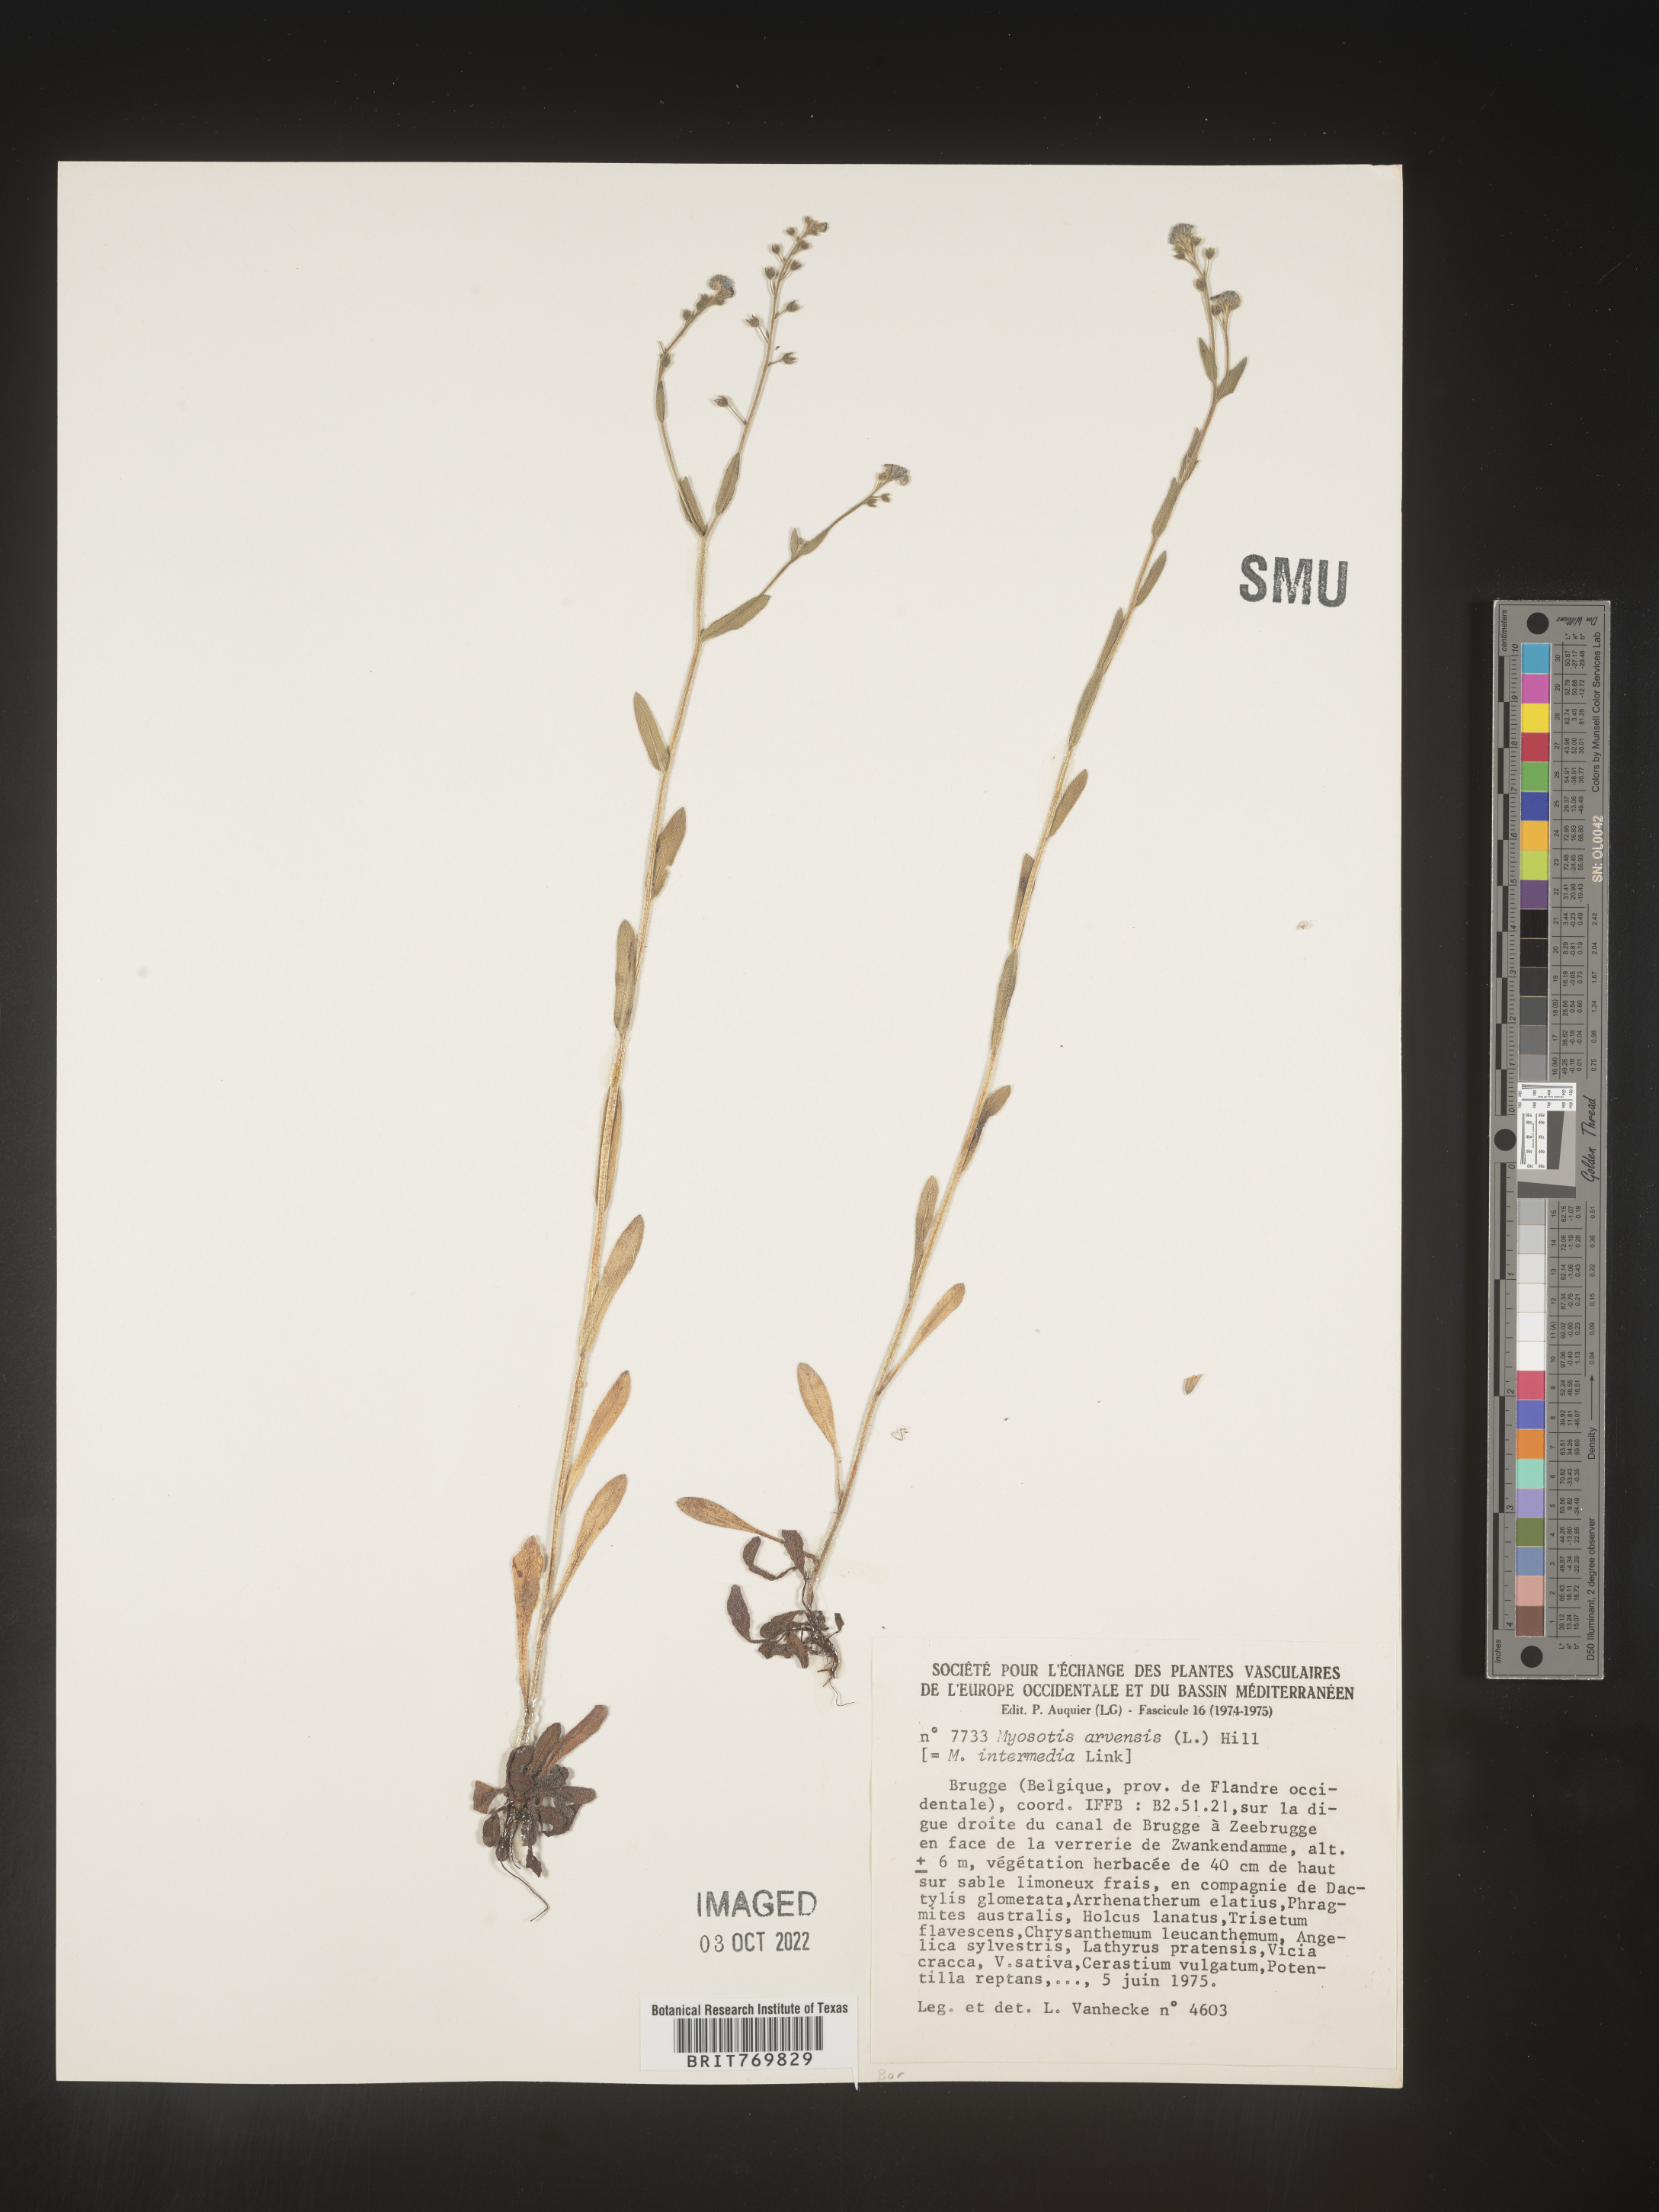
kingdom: Plantae
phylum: Tracheophyta
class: Magnoliopsida
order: Boraginales
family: Boraginaceae
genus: Myosotis
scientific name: Myosotis
